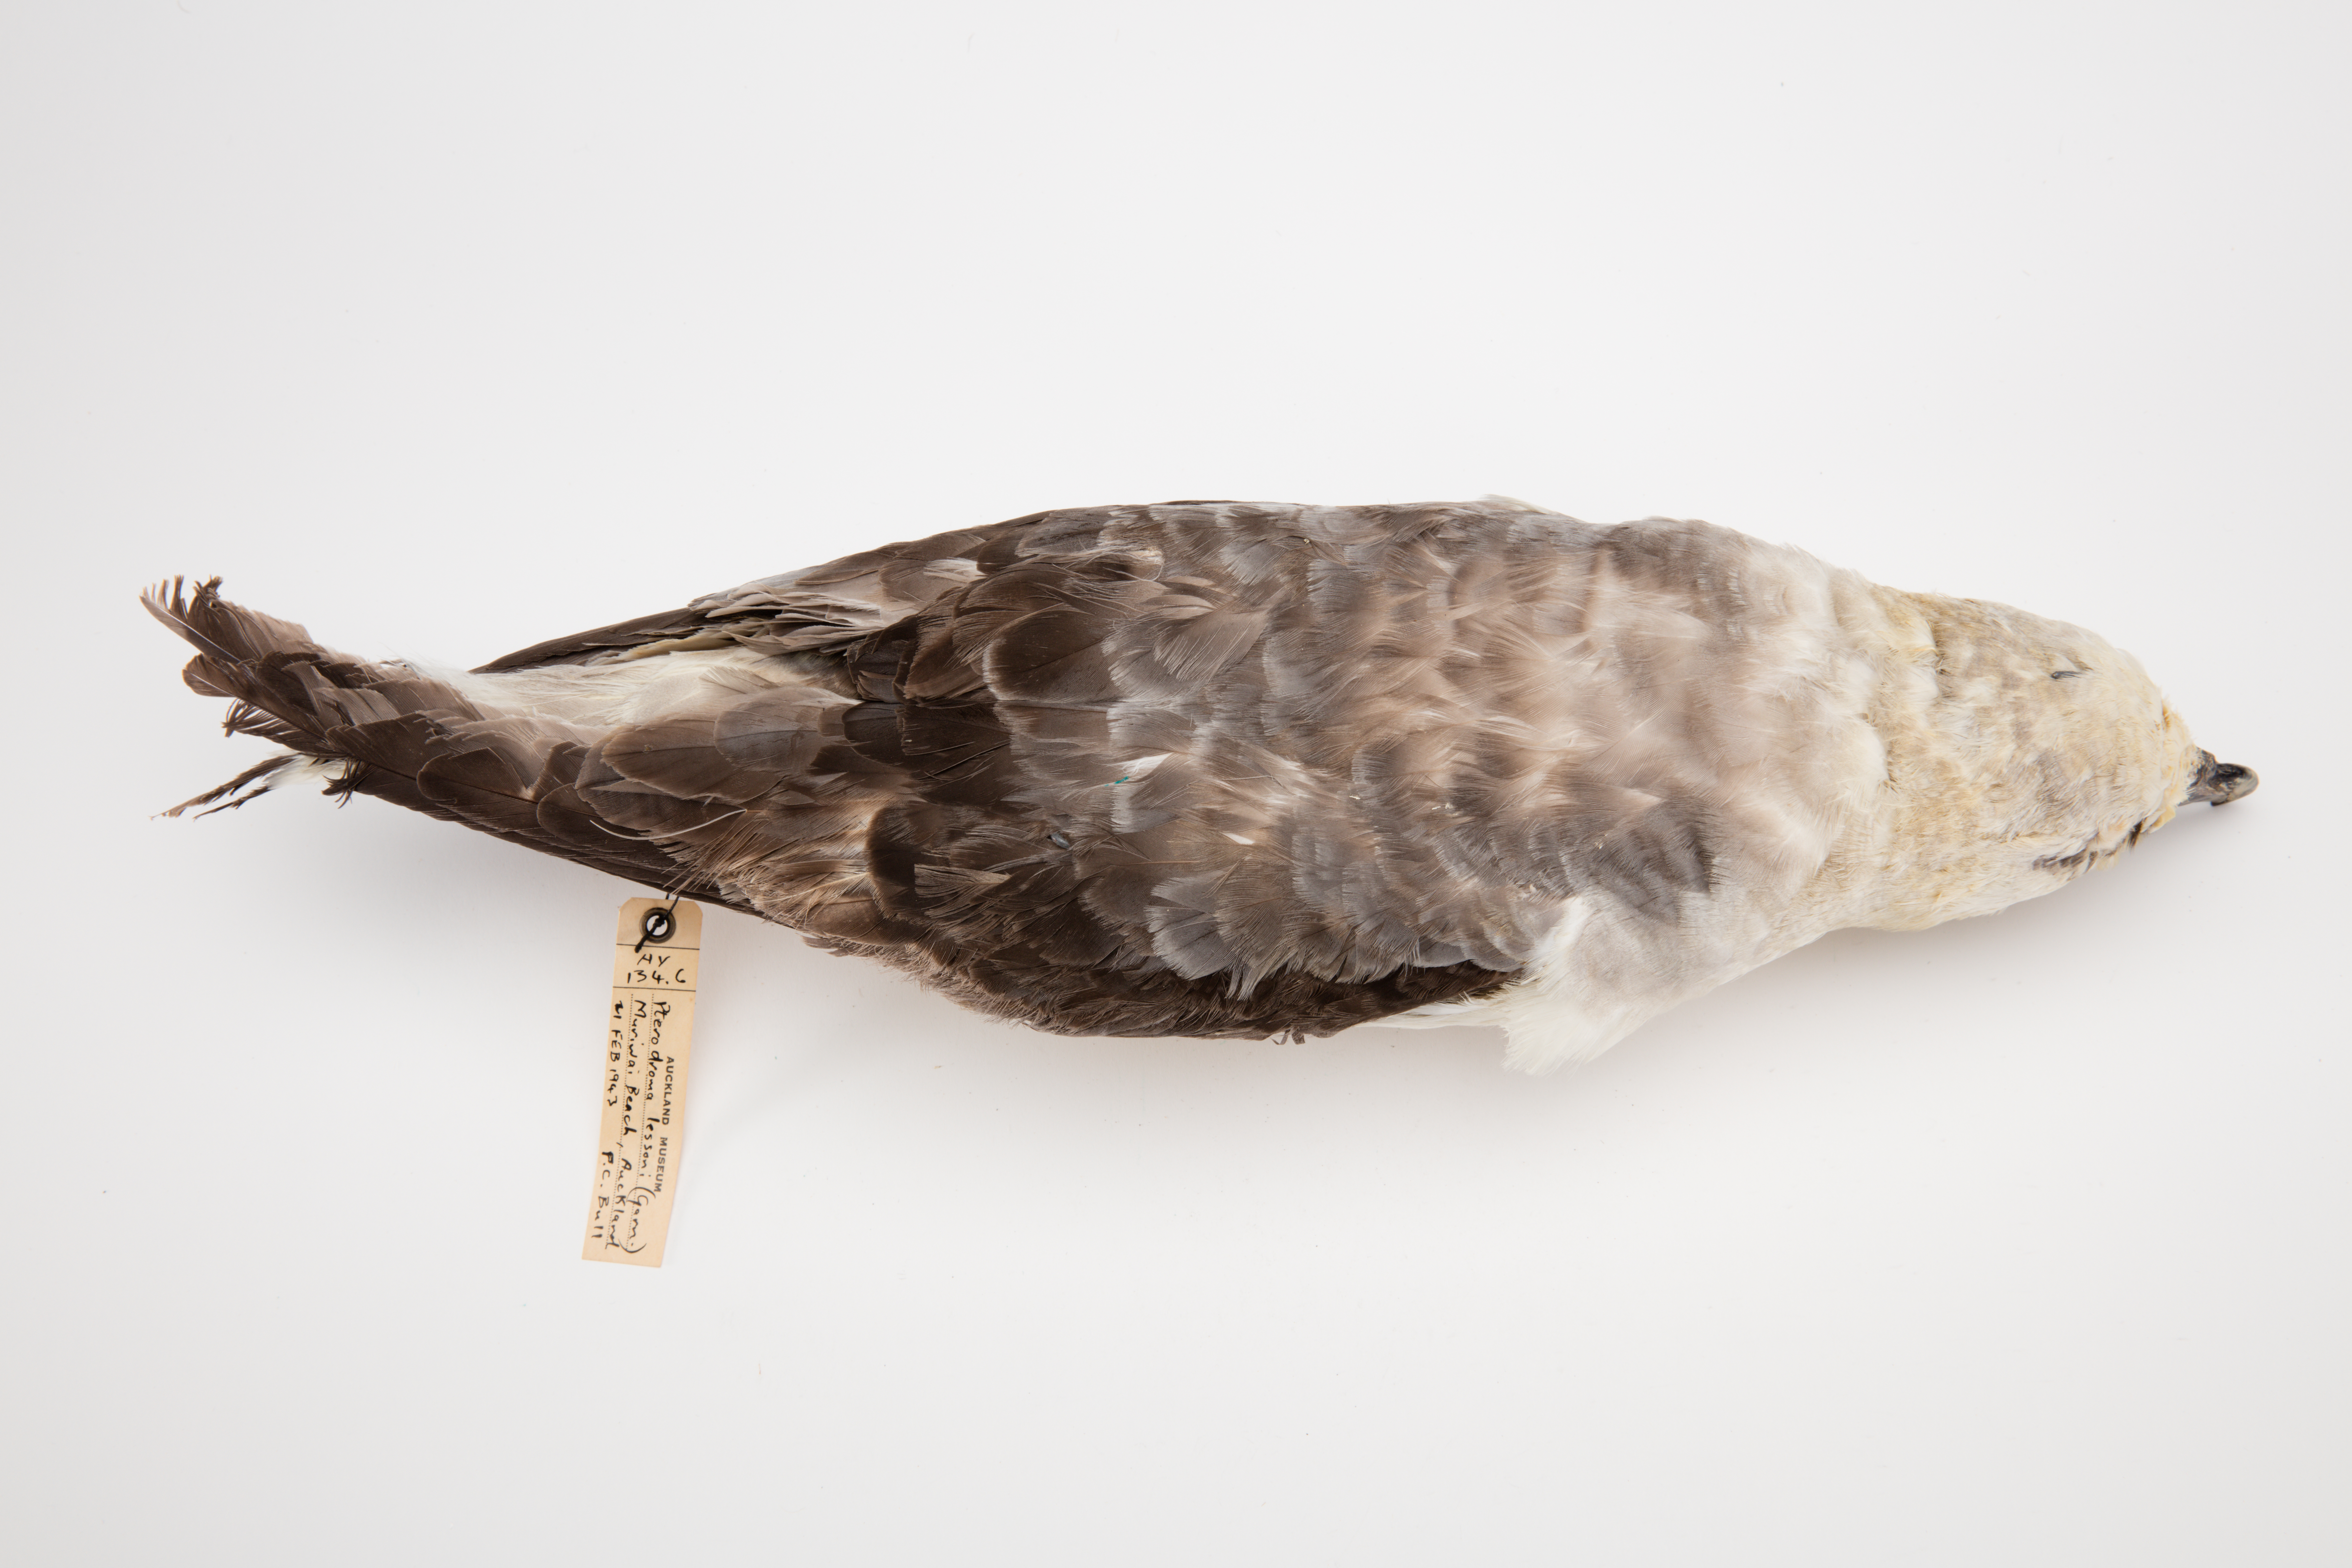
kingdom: Animalia
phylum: Chordata
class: Aves
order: Procellariiformes
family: Procellariidae
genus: Pterodroma
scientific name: Pterodroma lessonii
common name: White-headed petrel
